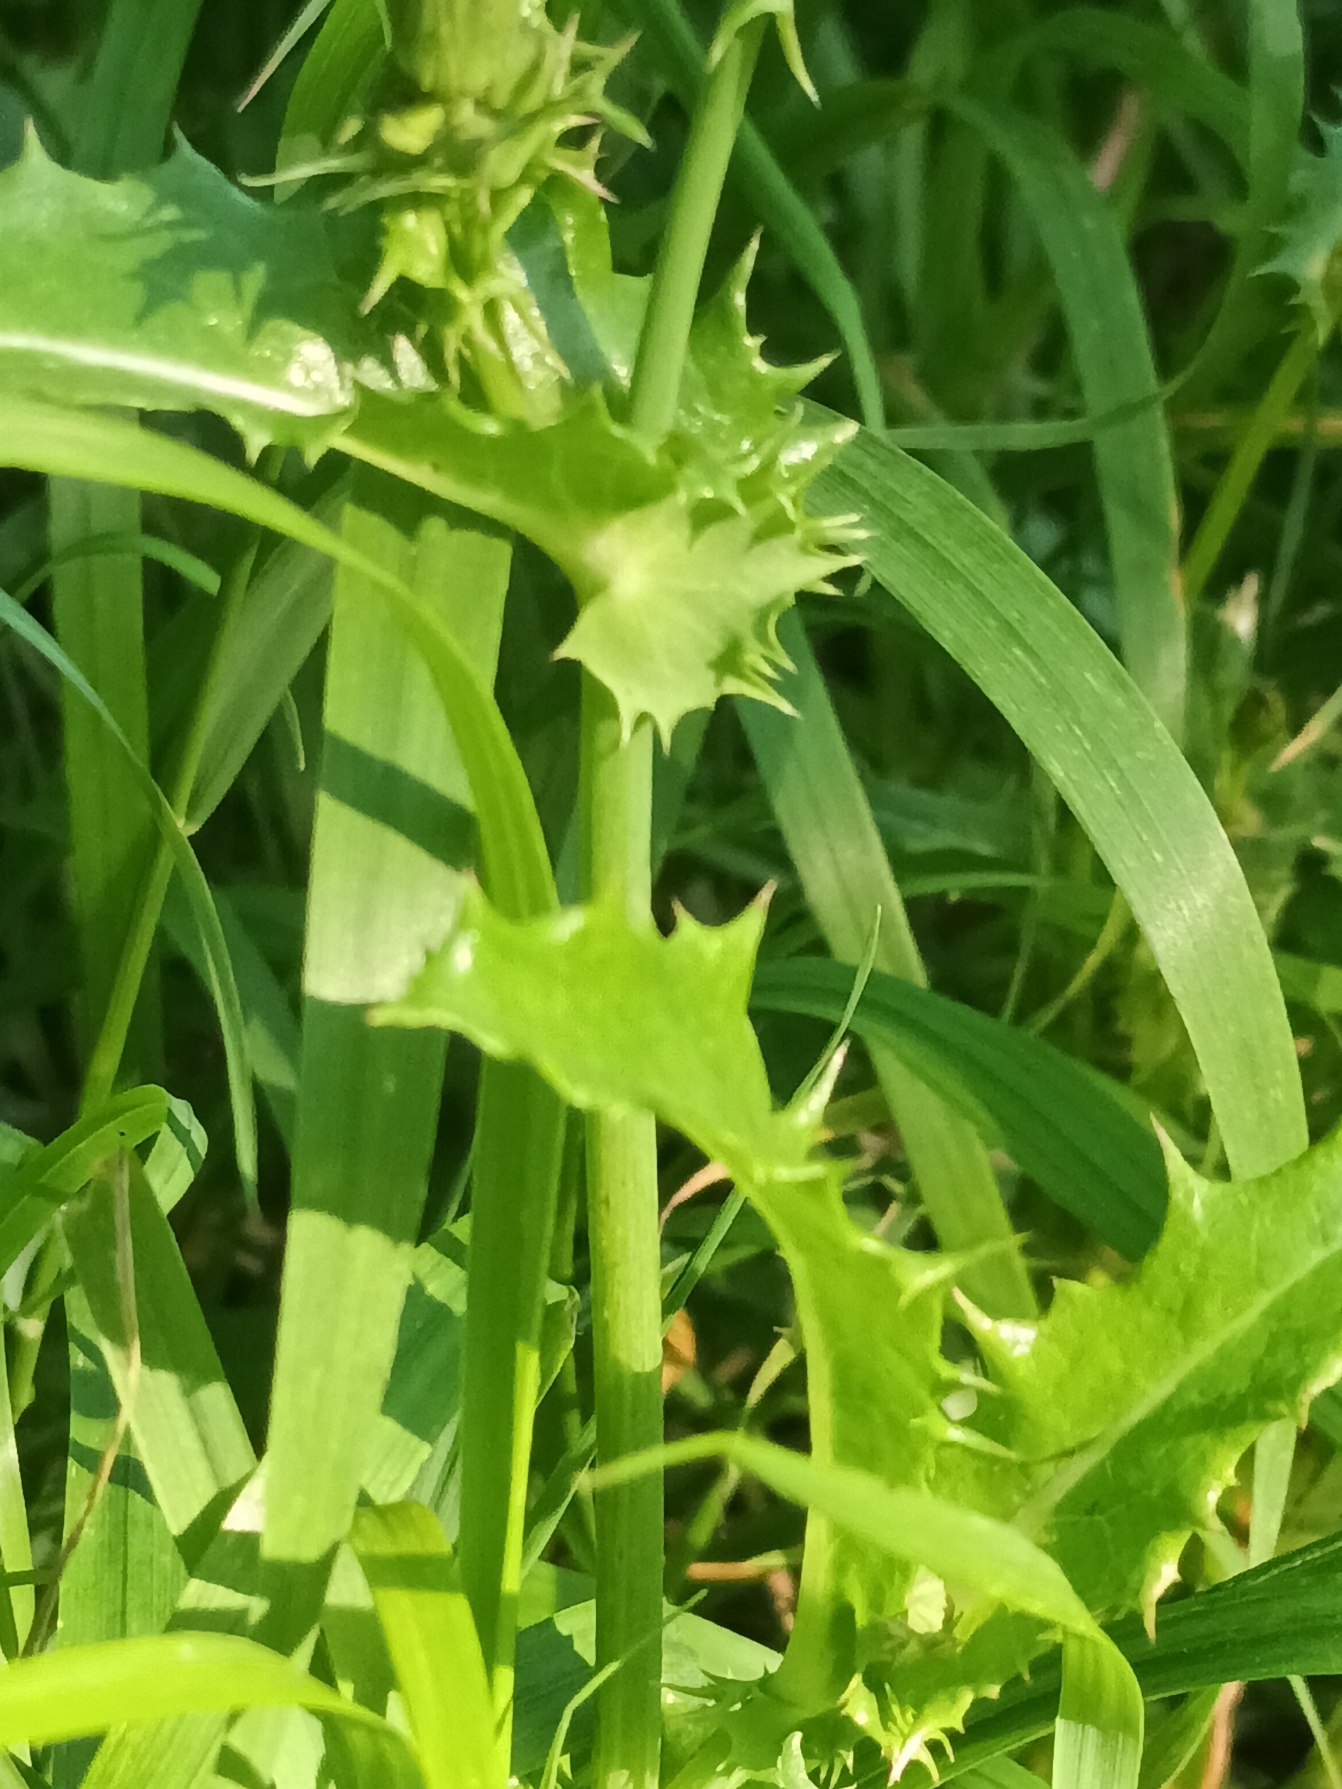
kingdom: Plantae
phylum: Tracheophyta
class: Magnoliopsida
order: Asterales
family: Asteraceae
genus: Sonchus
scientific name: Sonchus asper
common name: Ru svinemælk
